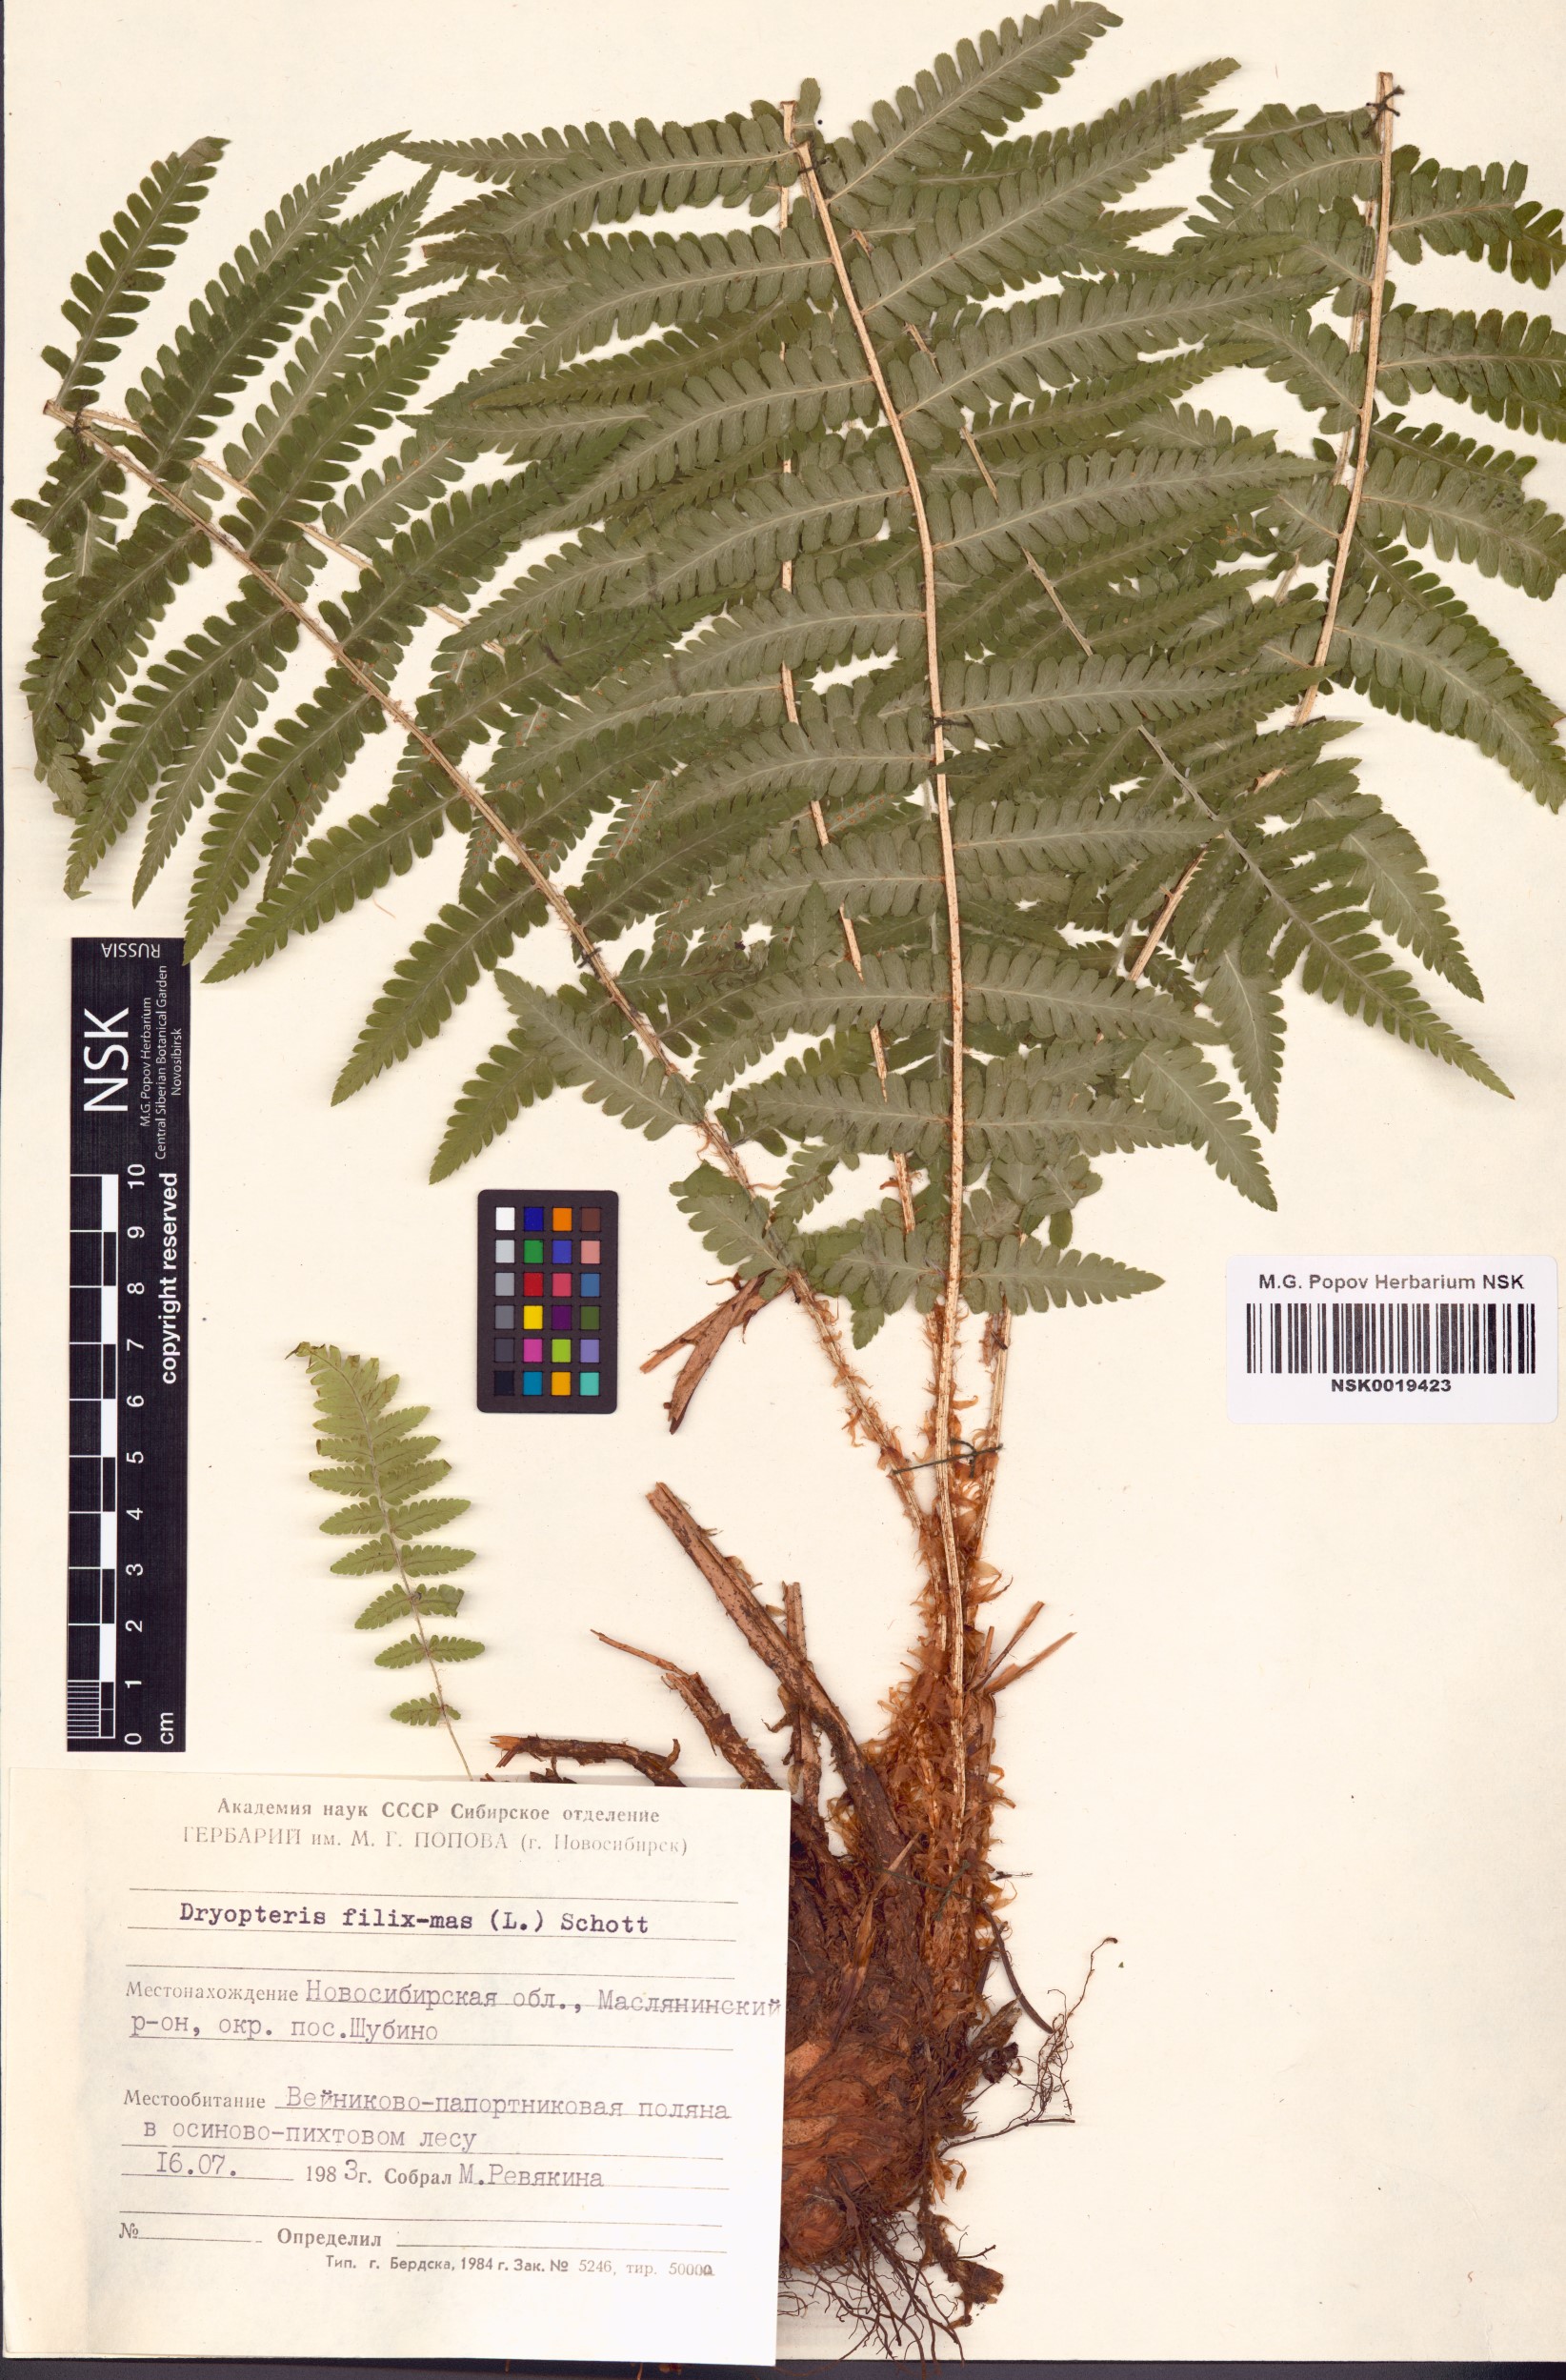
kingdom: Plantae
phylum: Tracheophyta
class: Polypodiopsida
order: Polypodiales
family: Dryopteridaceae
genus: Dryopteris
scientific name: Dryopteris filix-mas
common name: Male fern
